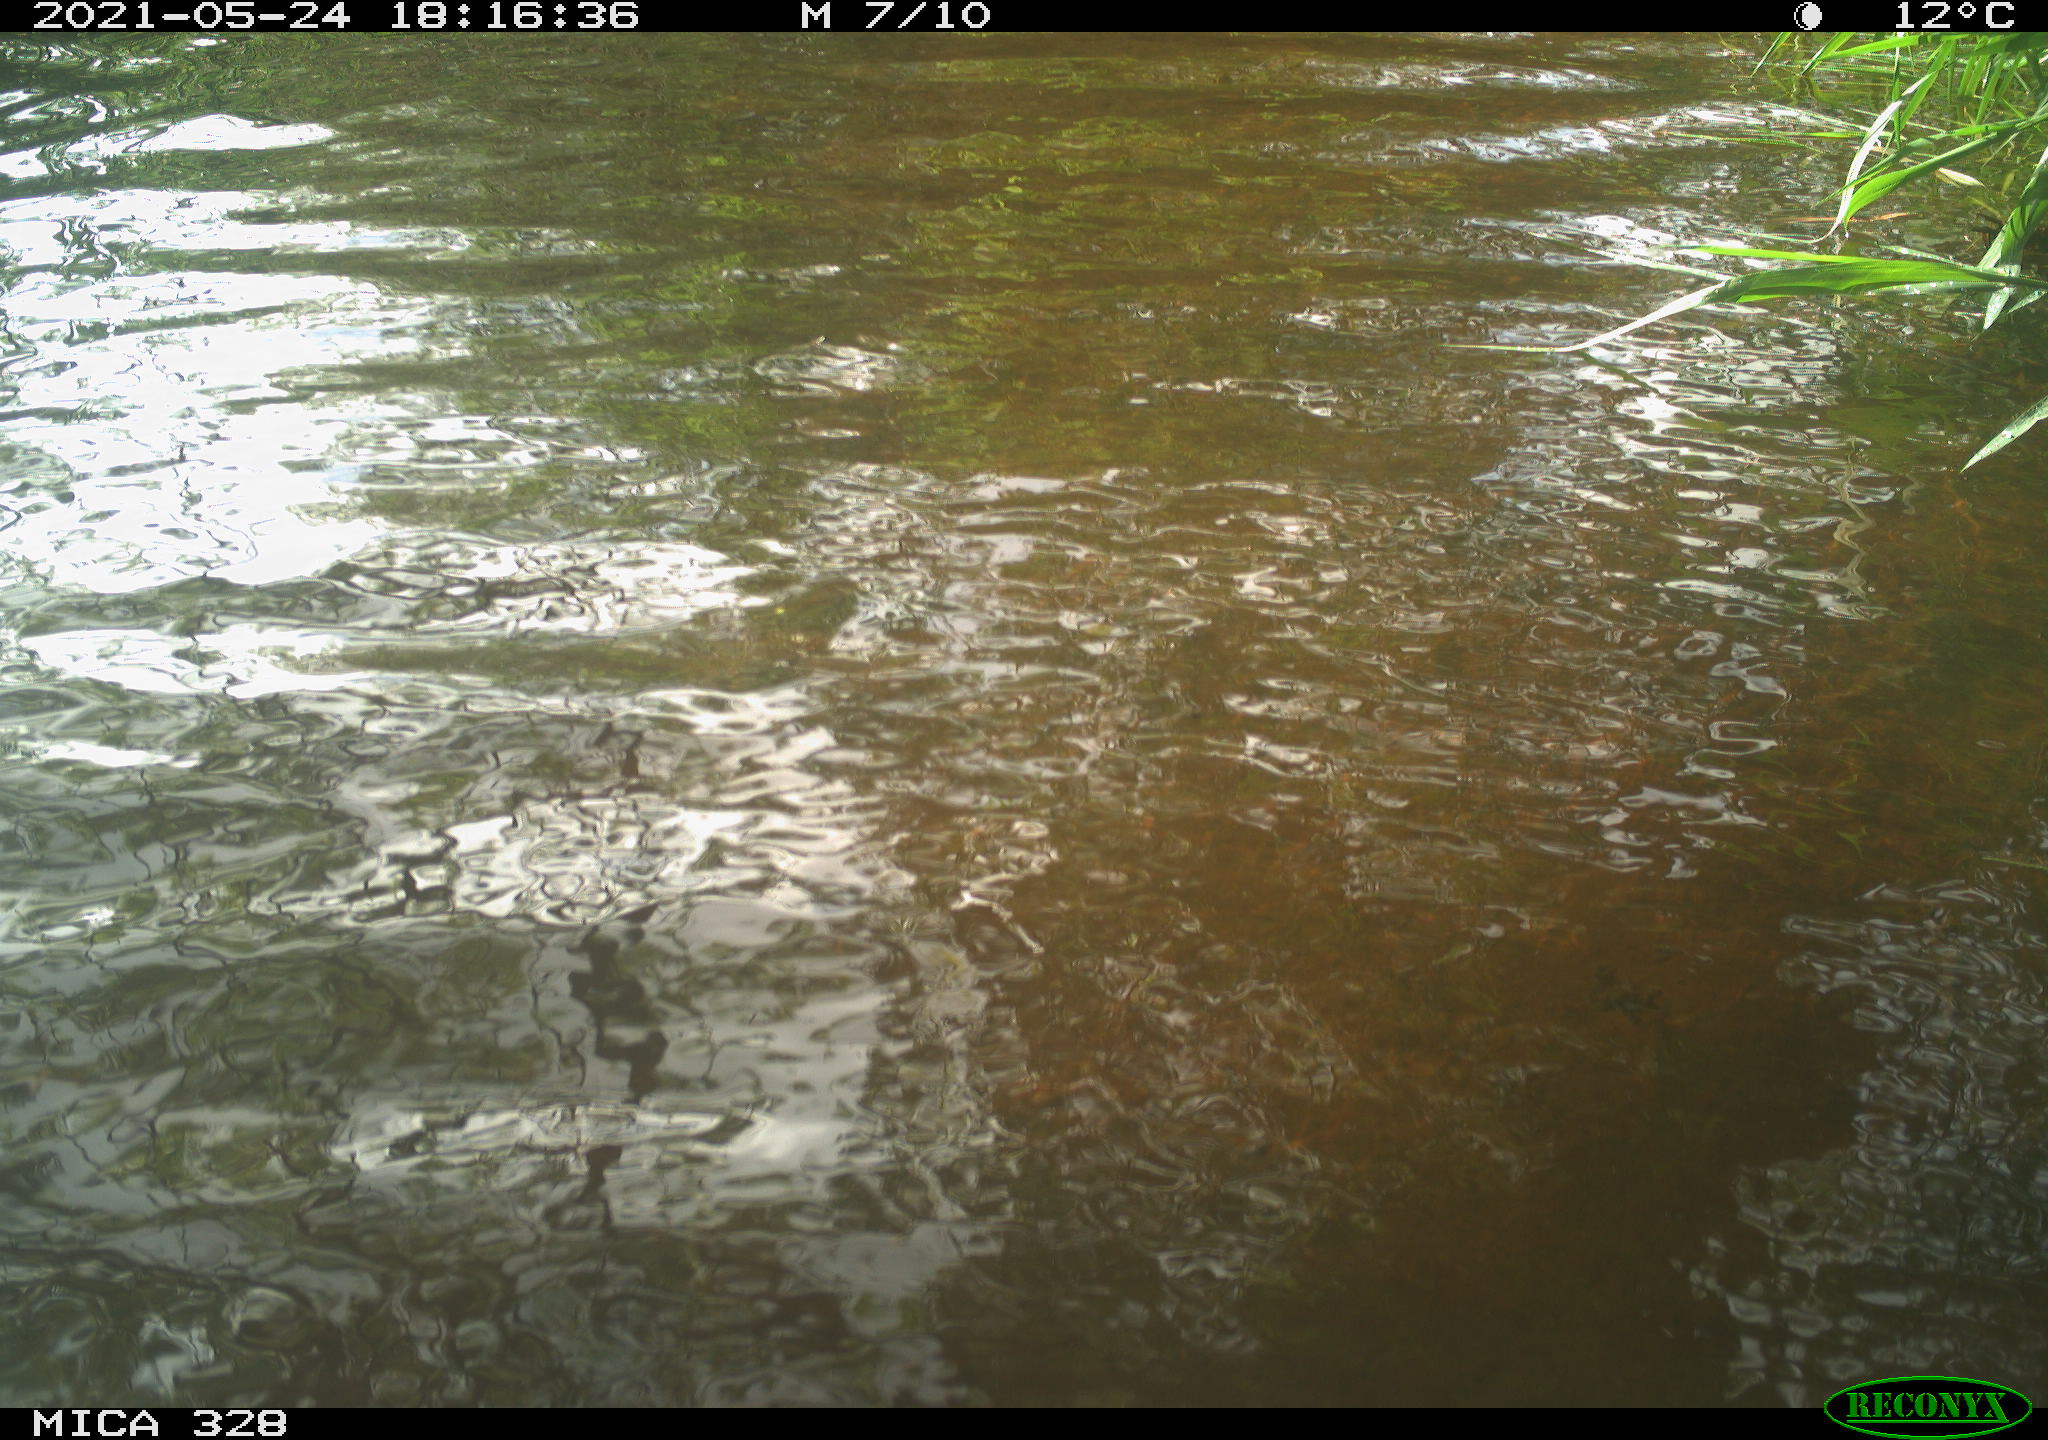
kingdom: Animalia
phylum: Chordata
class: Aves
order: Anseriformes
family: Anatidae
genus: Aix
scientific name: Aix galericulata
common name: Mandarin duck
